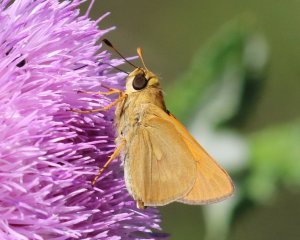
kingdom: Animalia
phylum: Arthropoda
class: Insecta
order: Lepidoptera
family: Hesperiidae
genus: Mellana
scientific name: Mellana eulogius
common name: Common Mellana
